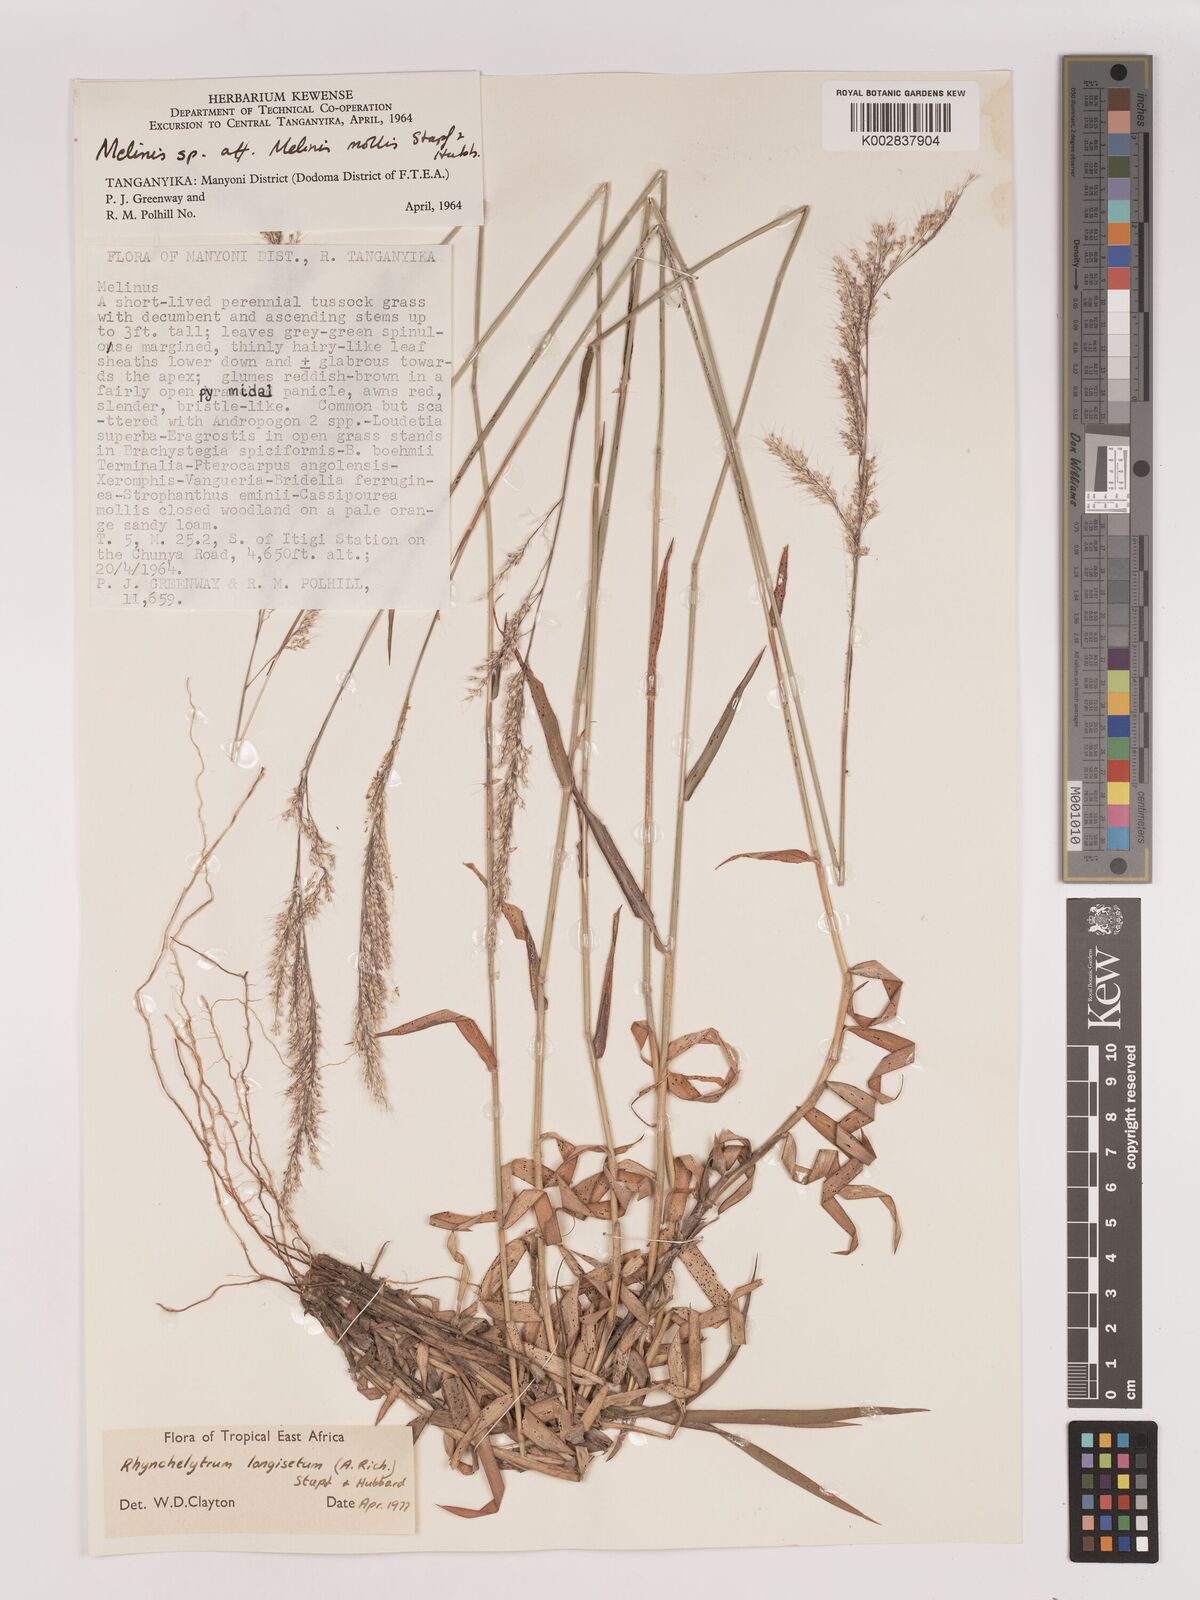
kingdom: Plantae
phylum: Tracheophyta
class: Liliopsida
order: Poales
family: Poaceae
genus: Melinis
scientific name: Melinis longiseta
